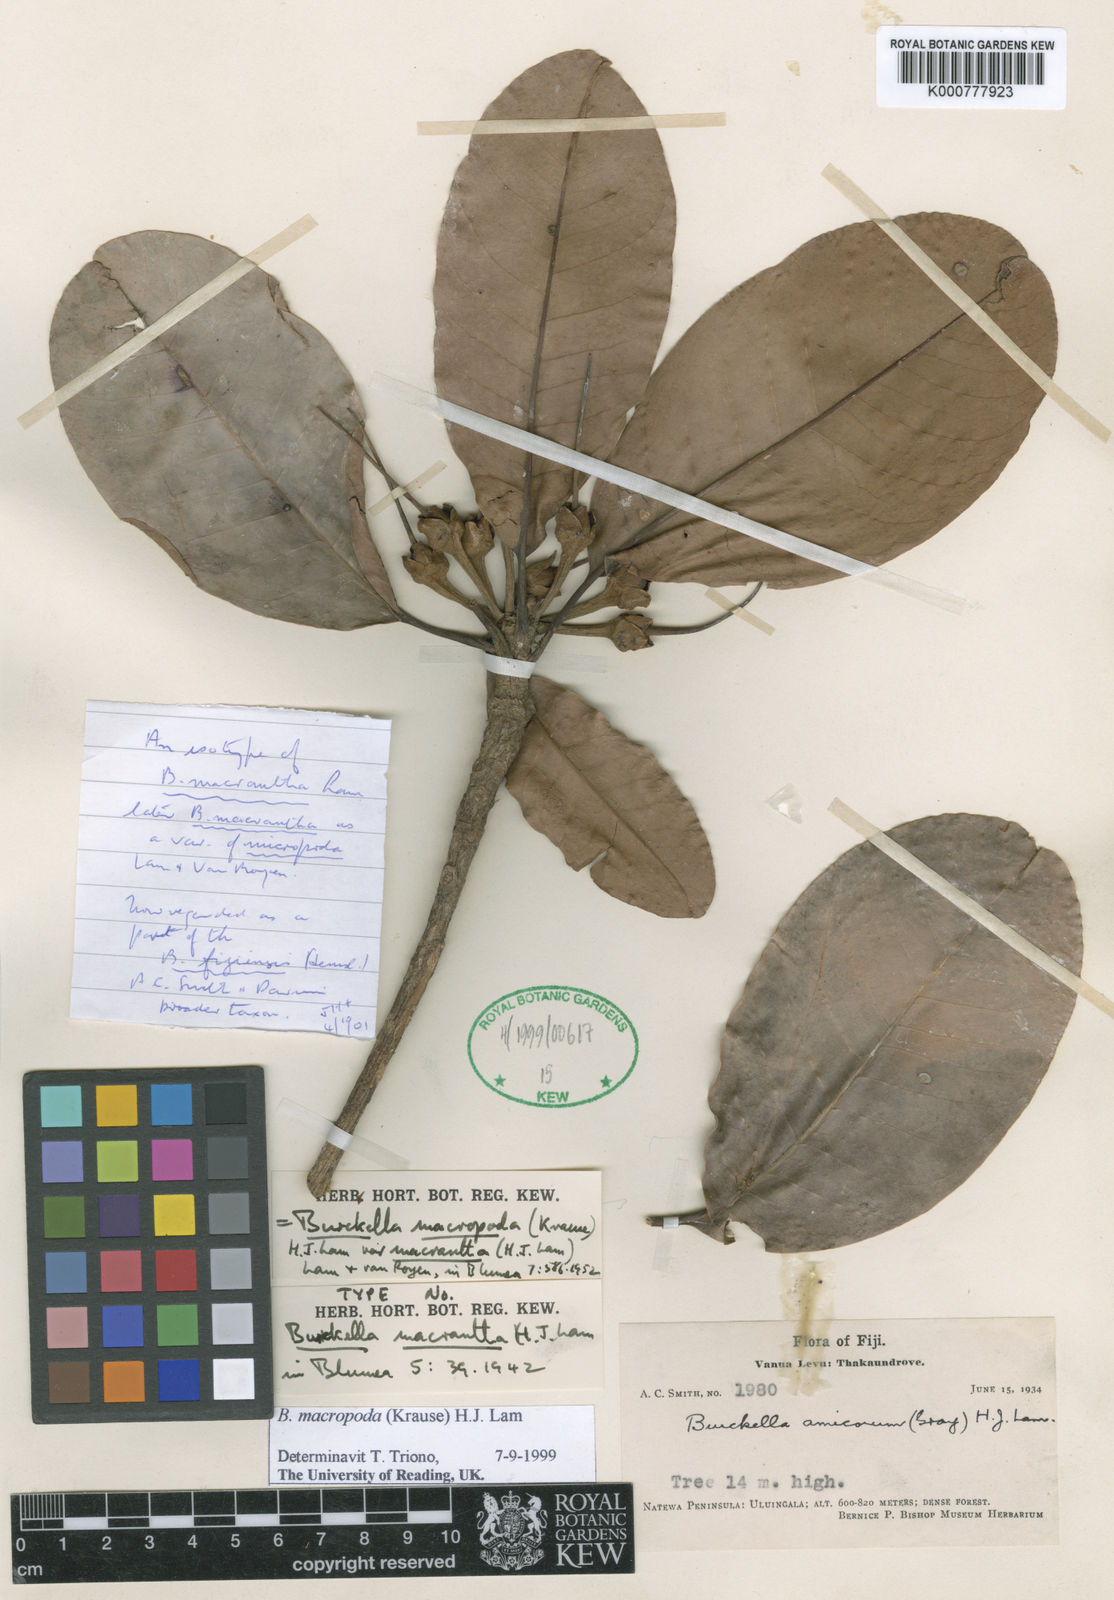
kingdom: Plantae
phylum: Tracheophyta
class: Magnoliopsida
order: Ericales
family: Sapotaceae
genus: Burckella
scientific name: Burckella fijiensis
